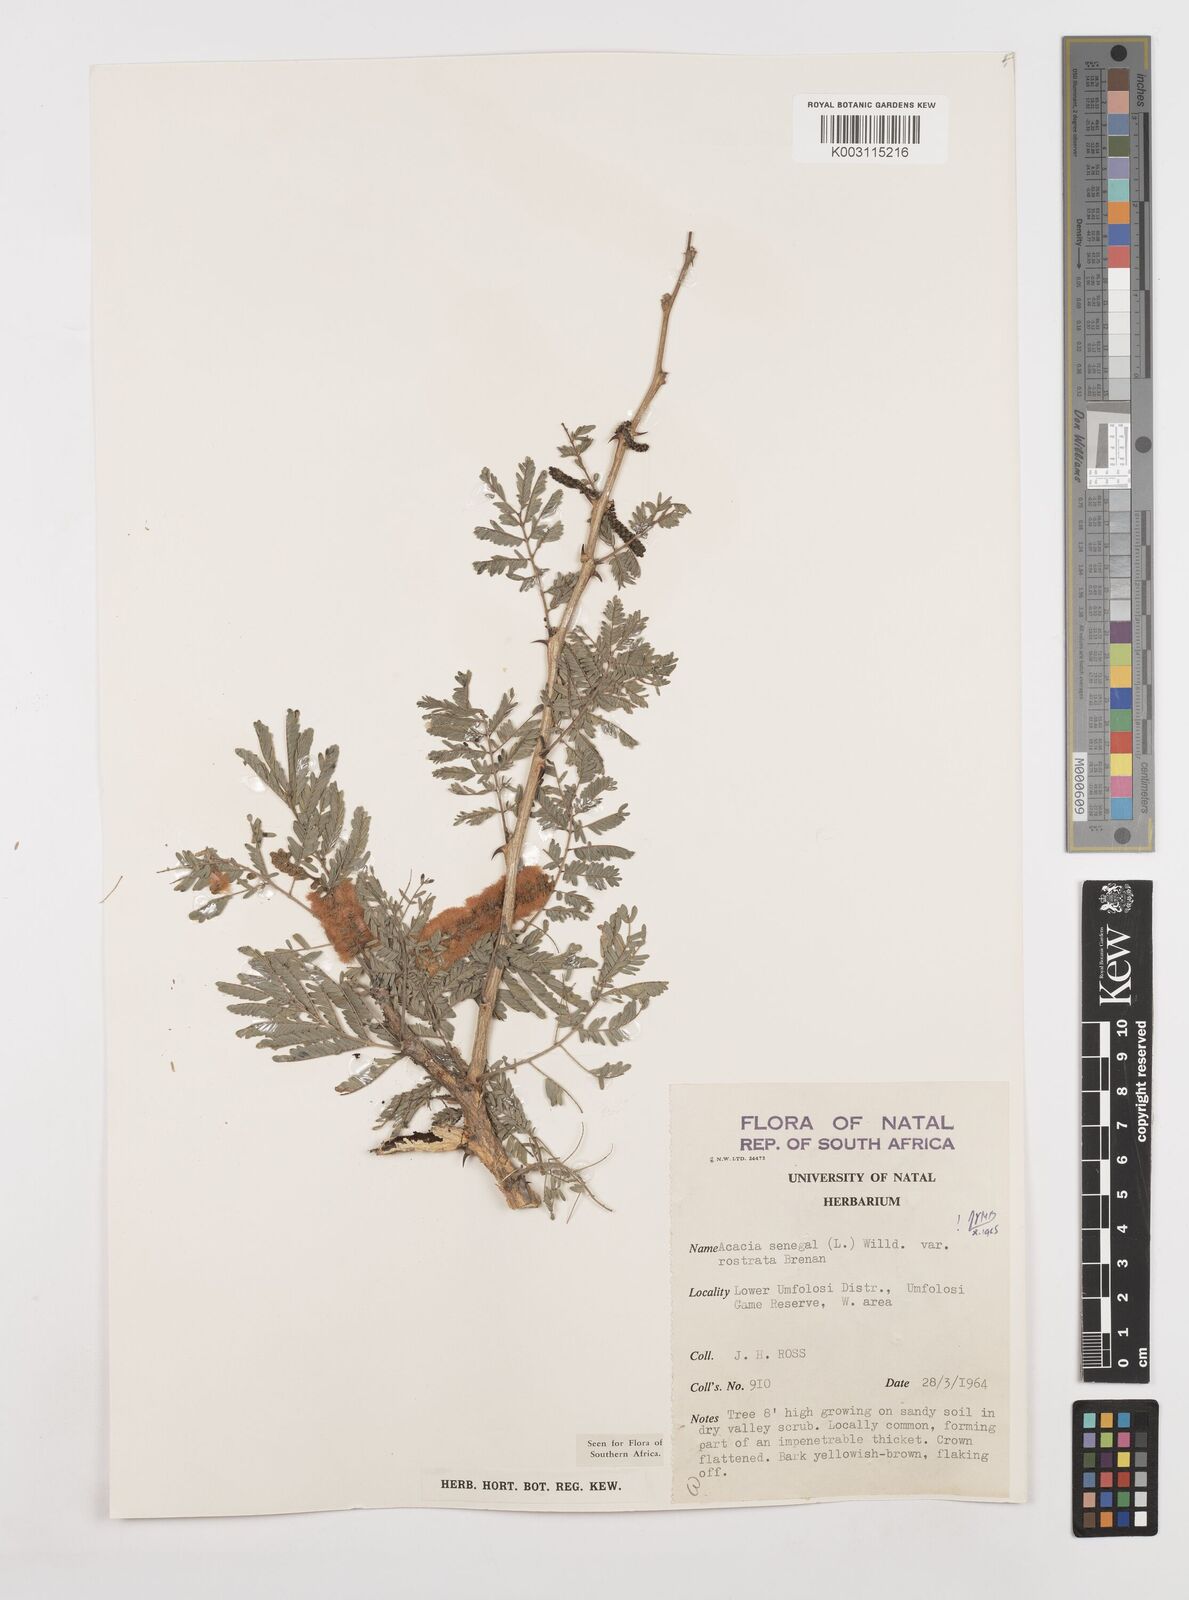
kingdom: Plantae
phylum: Tracheophyta
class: Magnoliopsida
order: Fabales
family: Fabaceae
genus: Senegalia
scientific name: Senegalia senegal
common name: Senegal-gum
